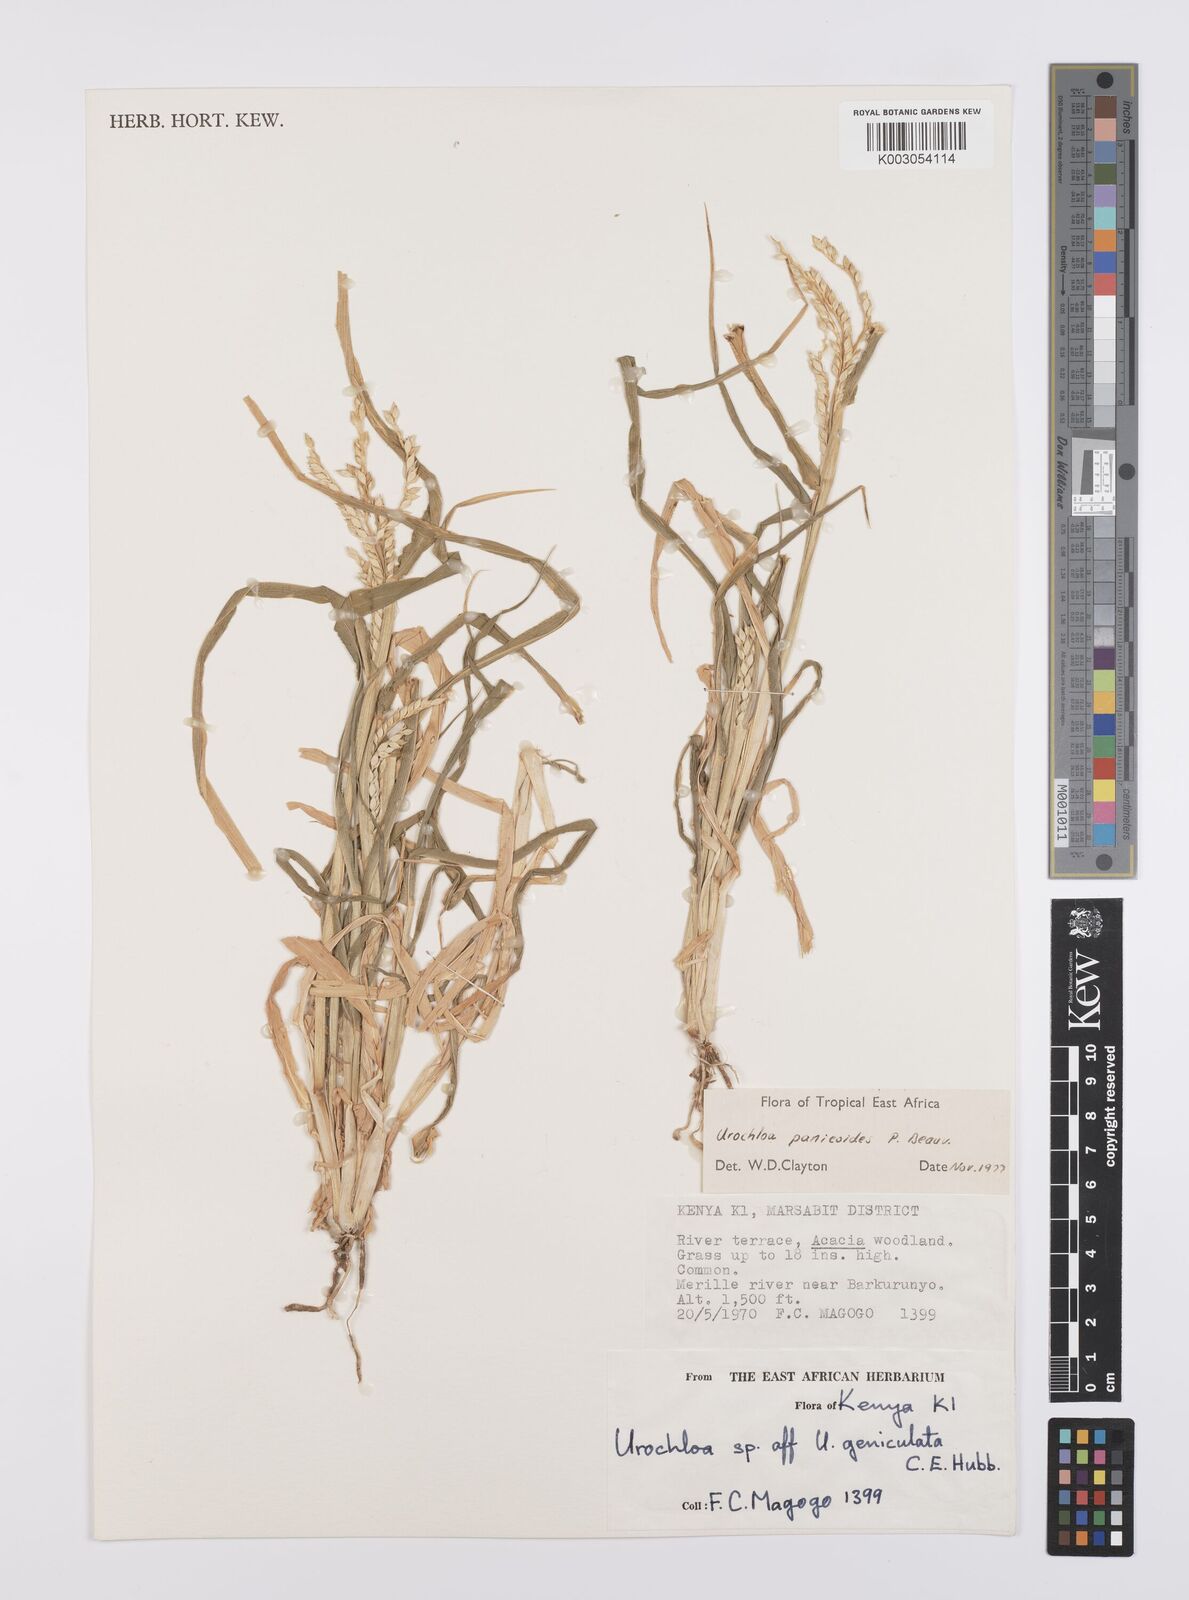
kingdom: Plantae
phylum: Tracheophyta
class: Liliopsida
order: Poales
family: Poaceae
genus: Urochloa
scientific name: Urochloa panicoides
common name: Sharp-flowered signal-grass
